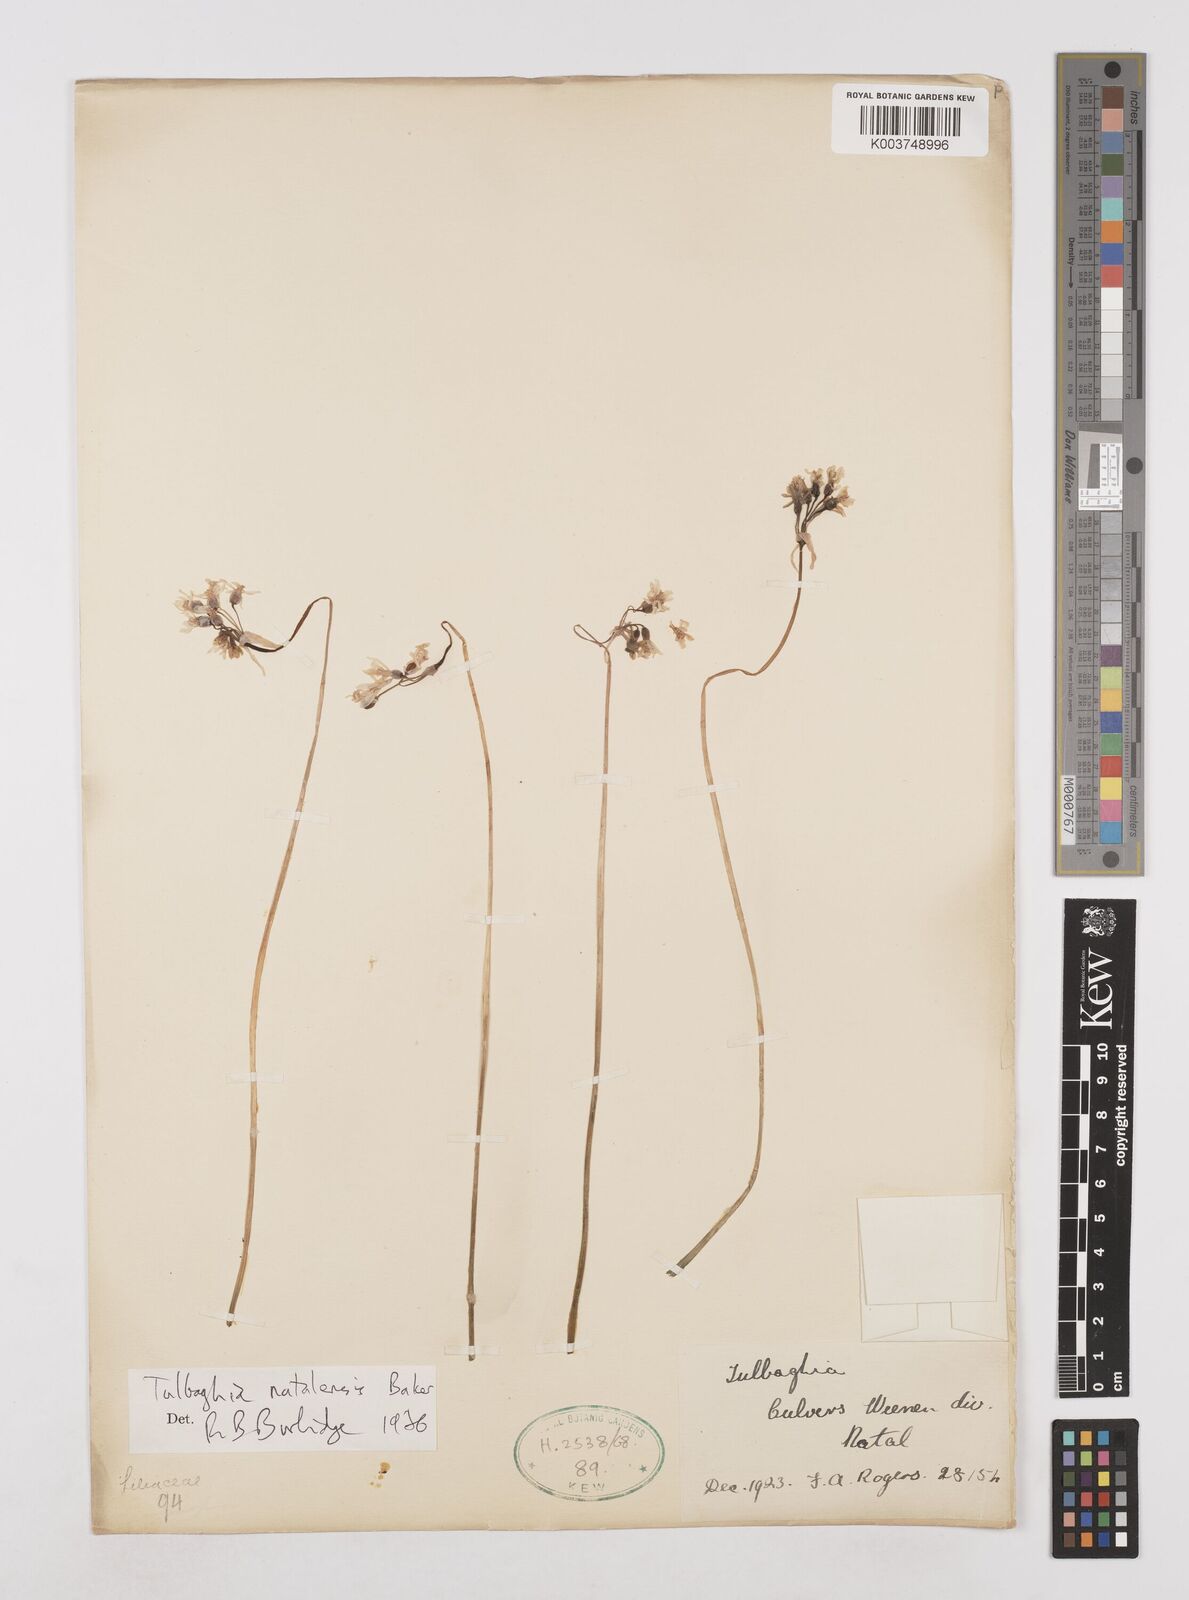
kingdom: Plantae
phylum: Tracheophyta
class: Liliopsida
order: Asparagales
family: Amaryllidaceae
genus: Tulbaghia
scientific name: Tulbaghia natalensis
